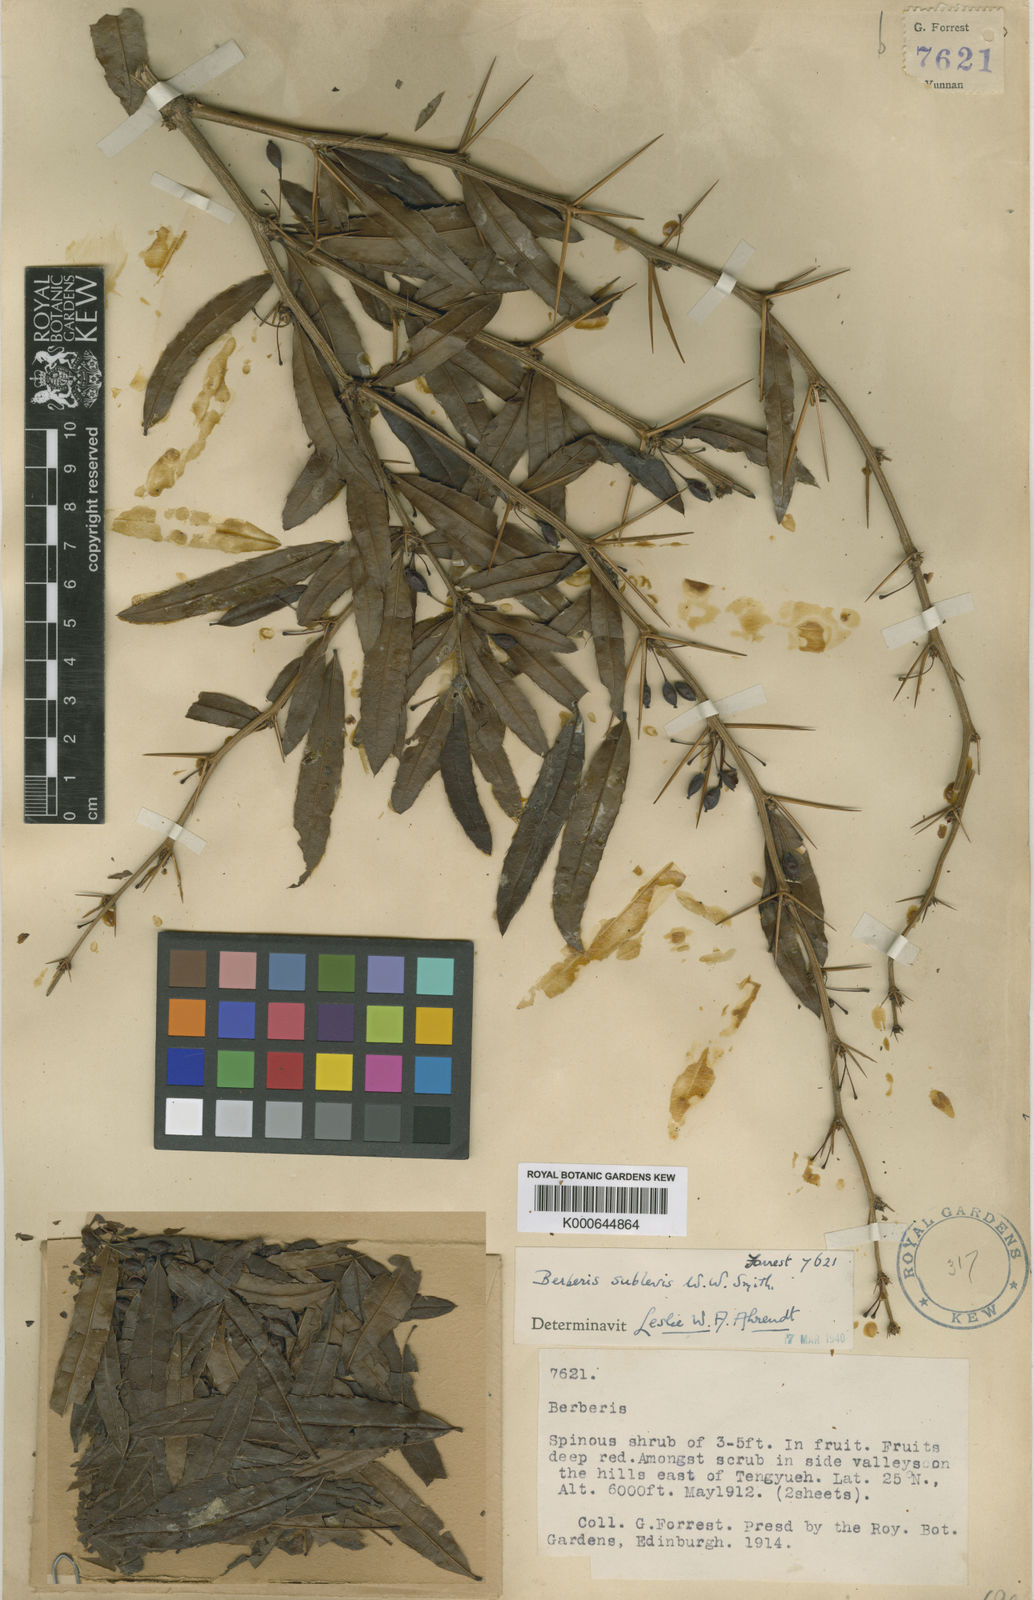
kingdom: Plantae
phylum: Tracheophyta
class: Magnoliopsida
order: Ranunculales
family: Berberidaceae
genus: Berberis
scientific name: Berberis sublevis
